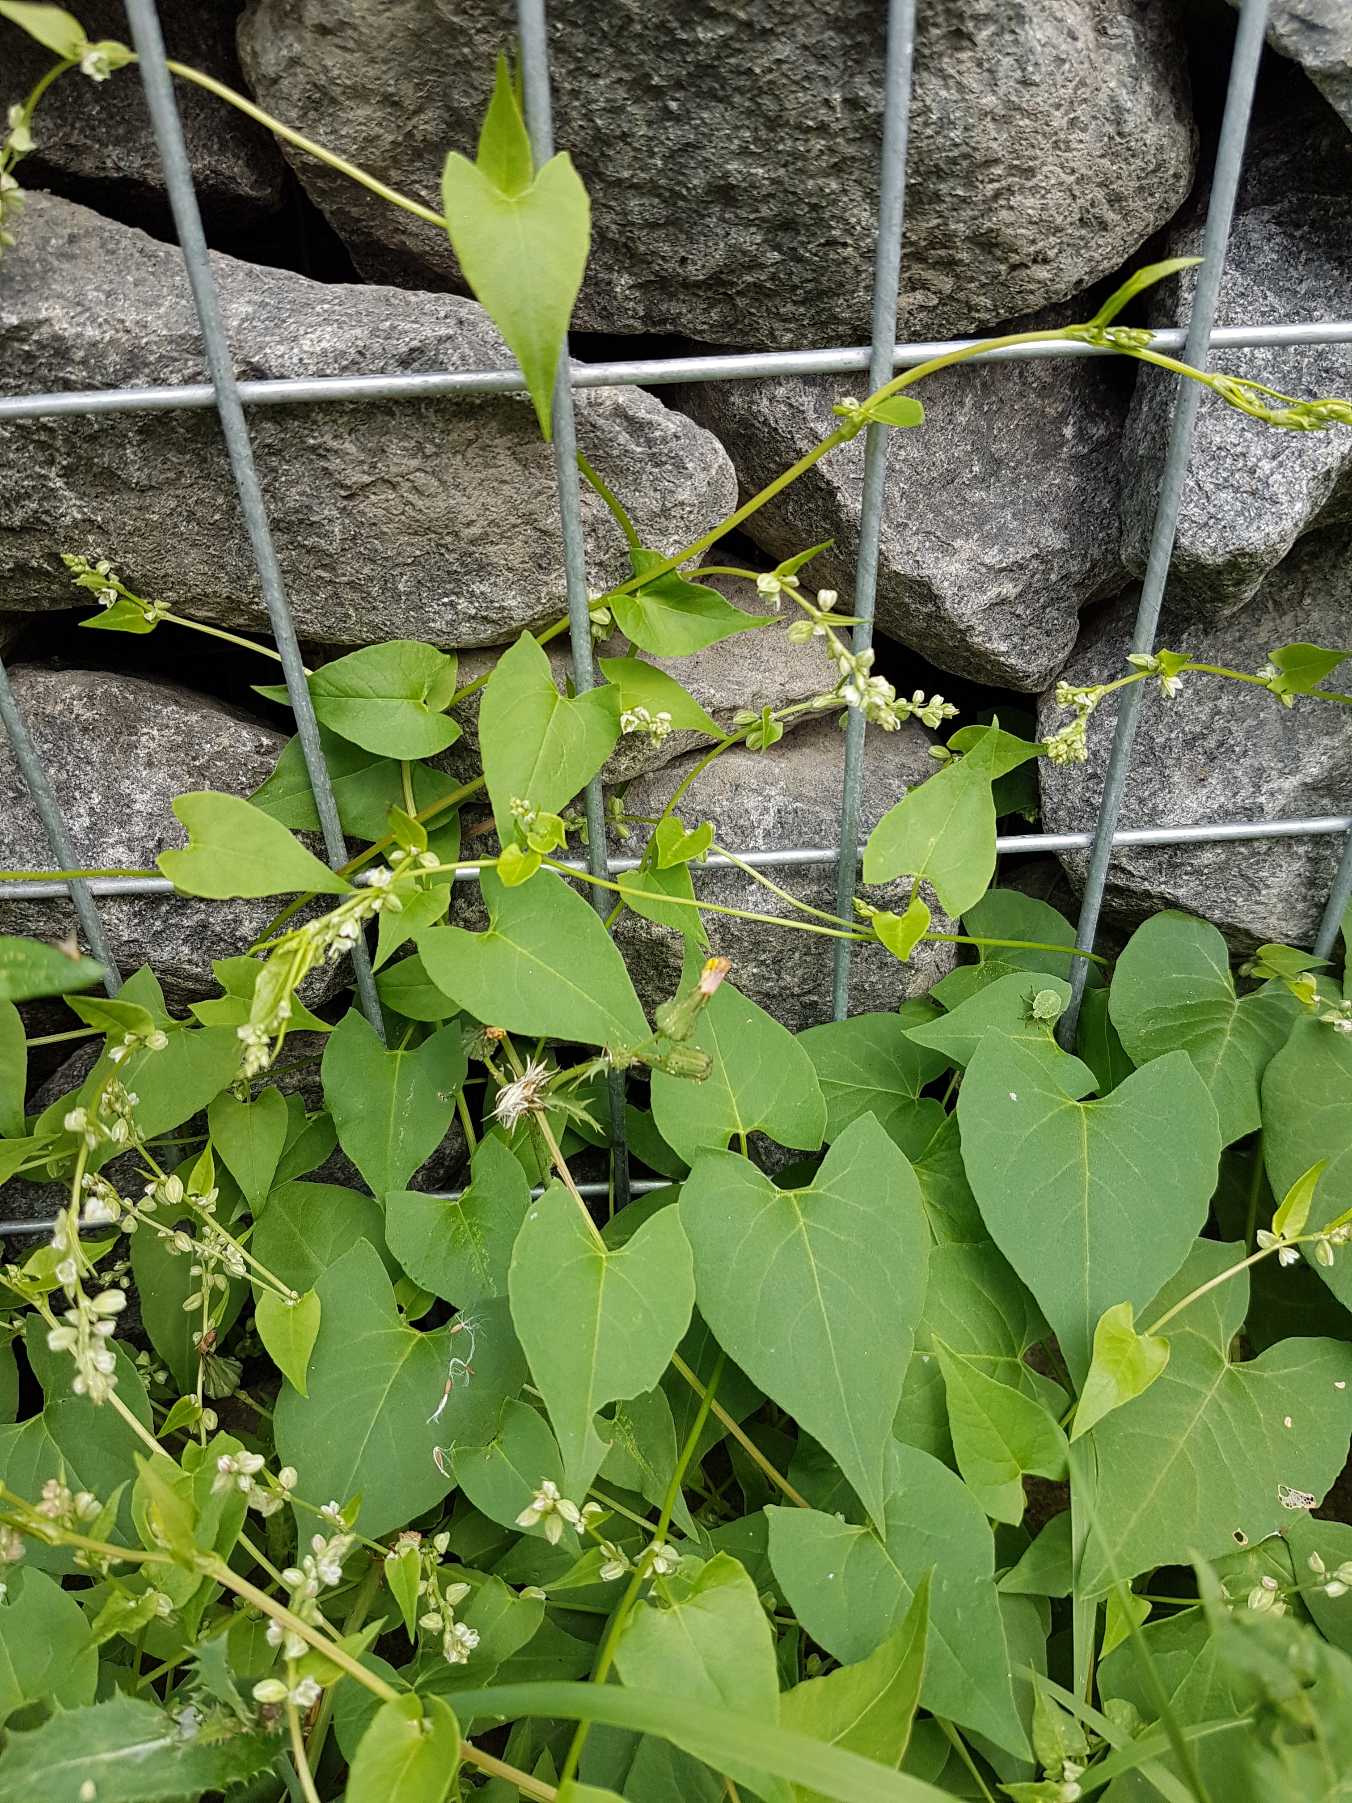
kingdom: Plantae
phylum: Tracheophyta
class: Magnoliopsida
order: Caryophyllales
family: Polygonaceae
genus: Fallopia
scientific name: Fallopia convolvulus
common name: Snerle-pileurt
